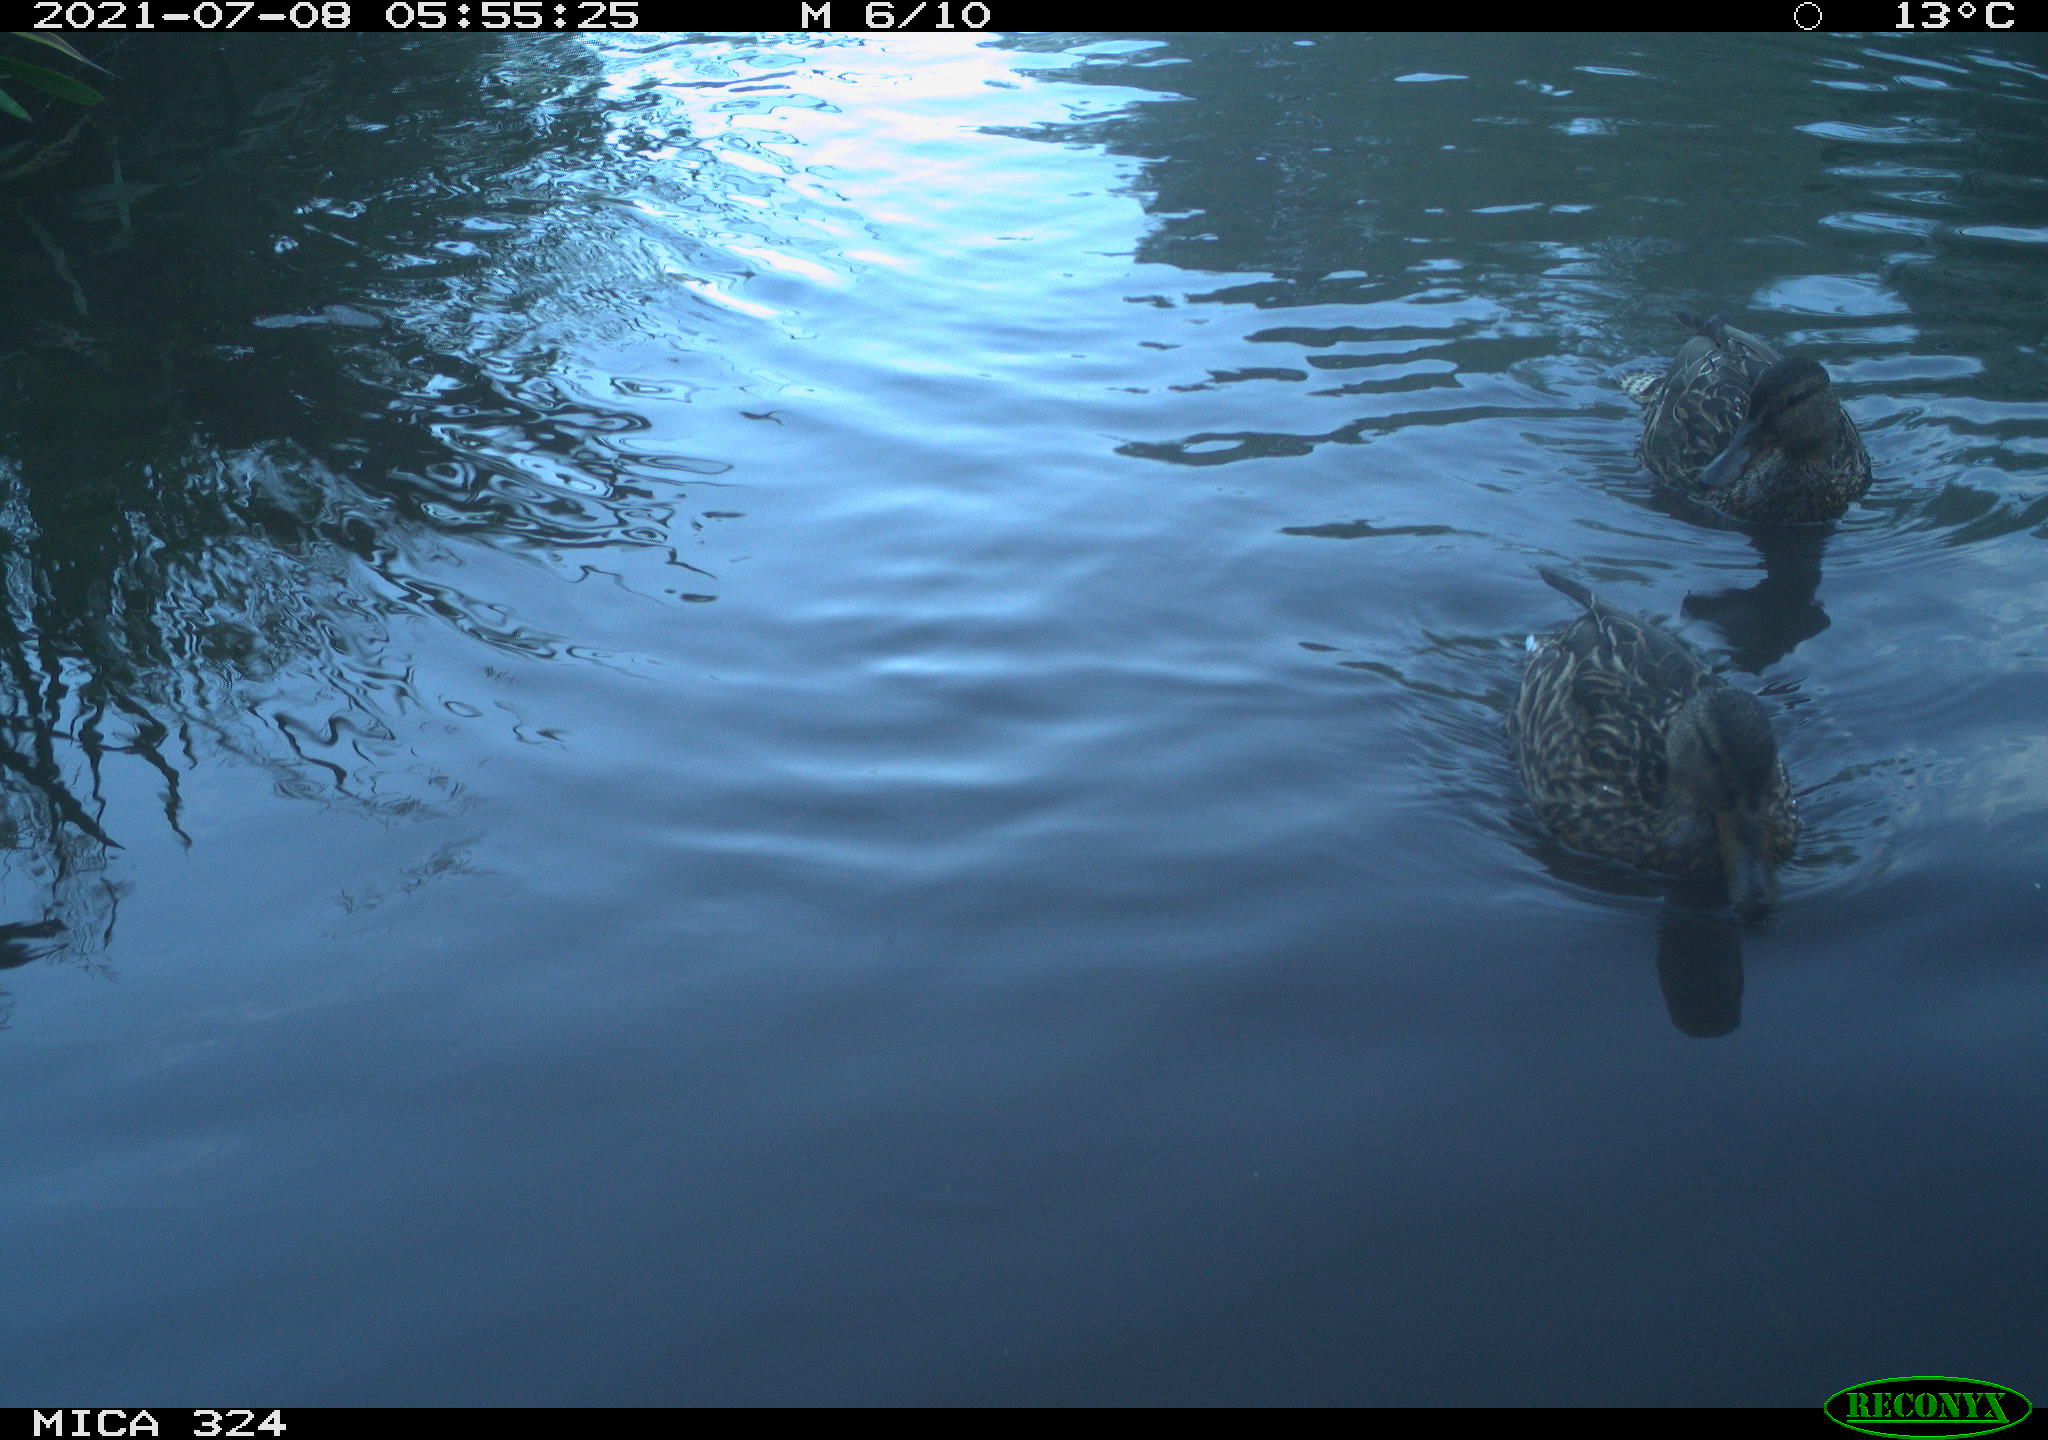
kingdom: Animalia
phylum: Chordata
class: Aves
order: Anseriformes
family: Anatidae
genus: Anas
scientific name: Anas platyrhynchos
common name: Mallard
